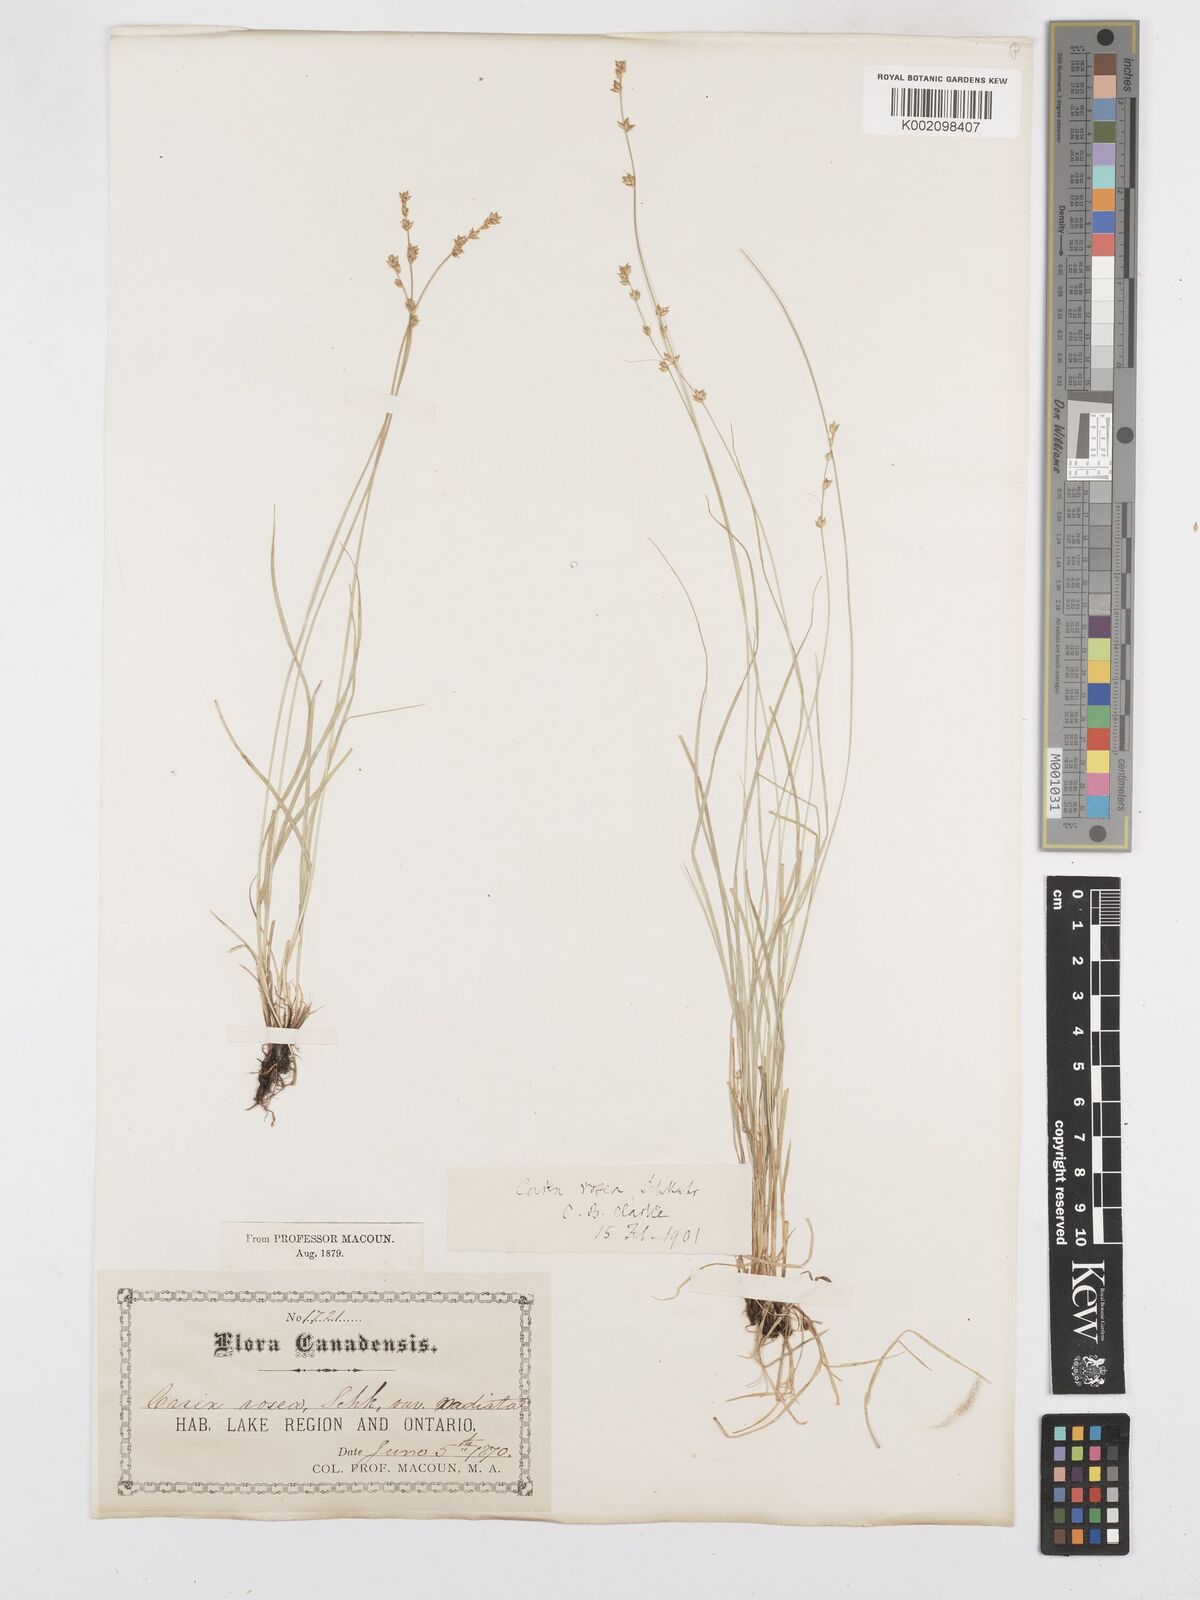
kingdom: Plantae
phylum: Tracheophyta
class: Liliopsida
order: Poales
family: Cyperaceae
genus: Carex
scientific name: Carex
